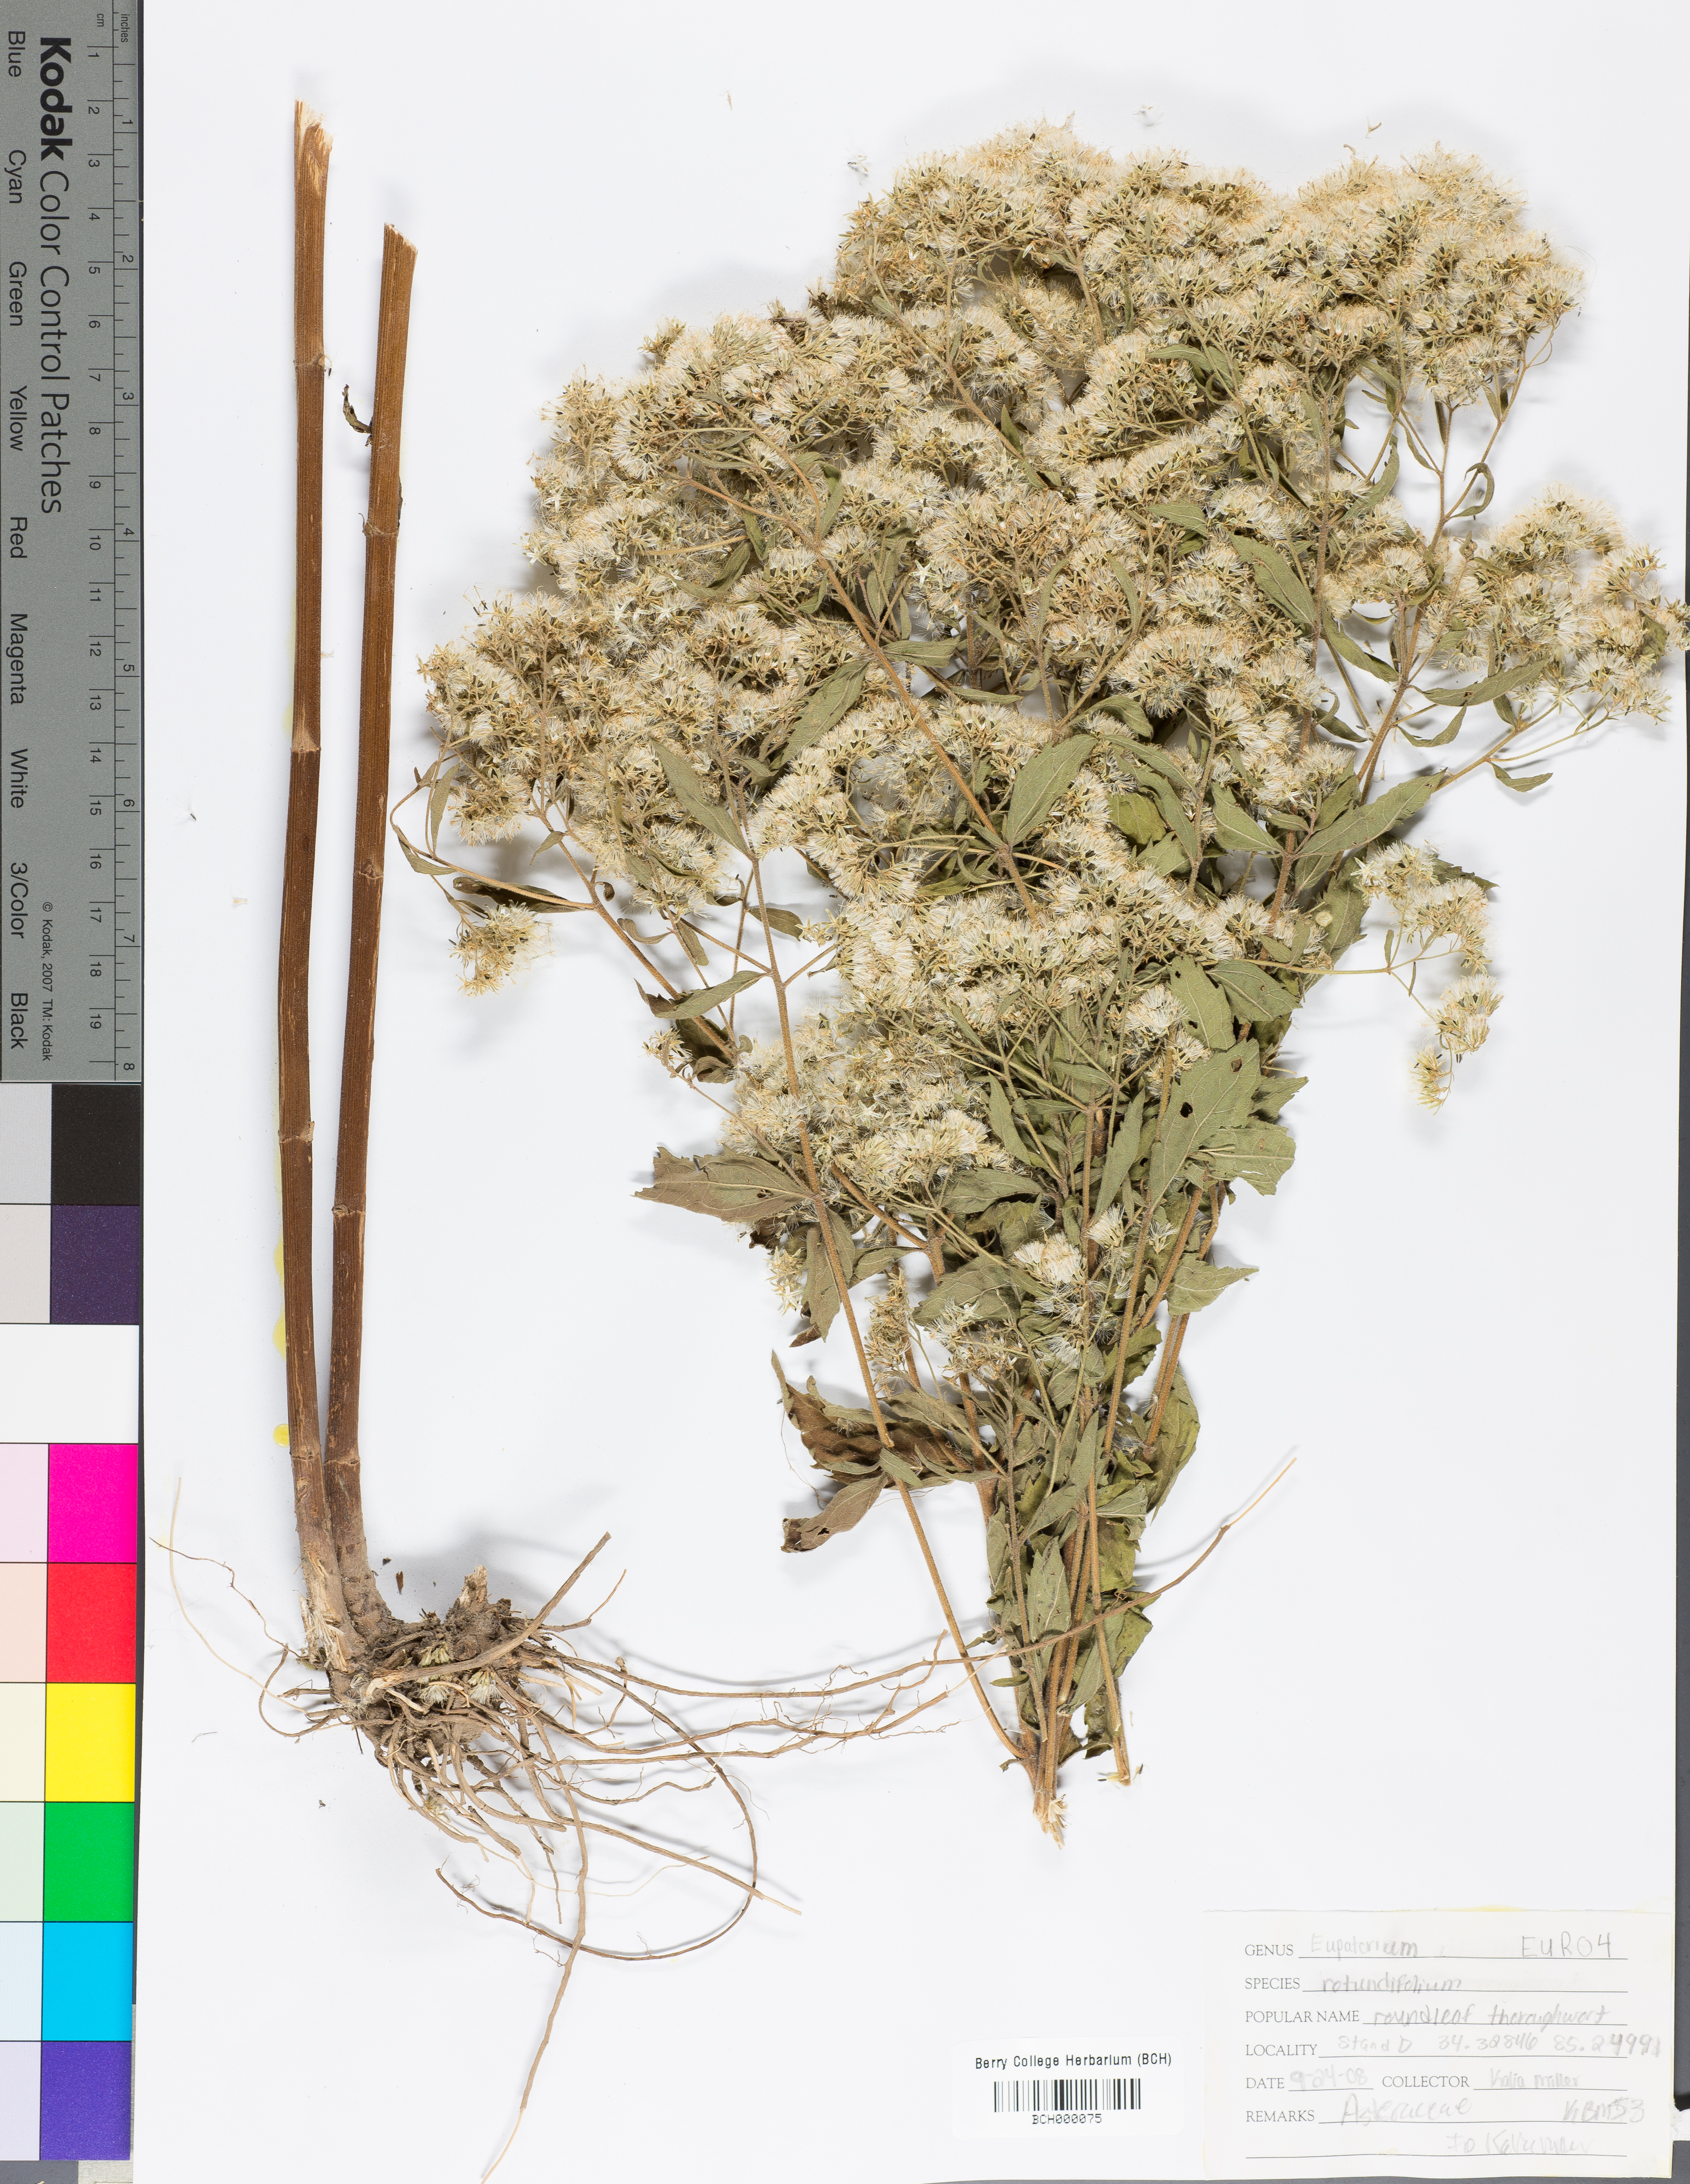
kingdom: Plantae
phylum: Tracheophyta
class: Magnoliopsida
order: Asterales
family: Asteraceae
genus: Eupatorium
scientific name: Eupatorium rotundifolium
